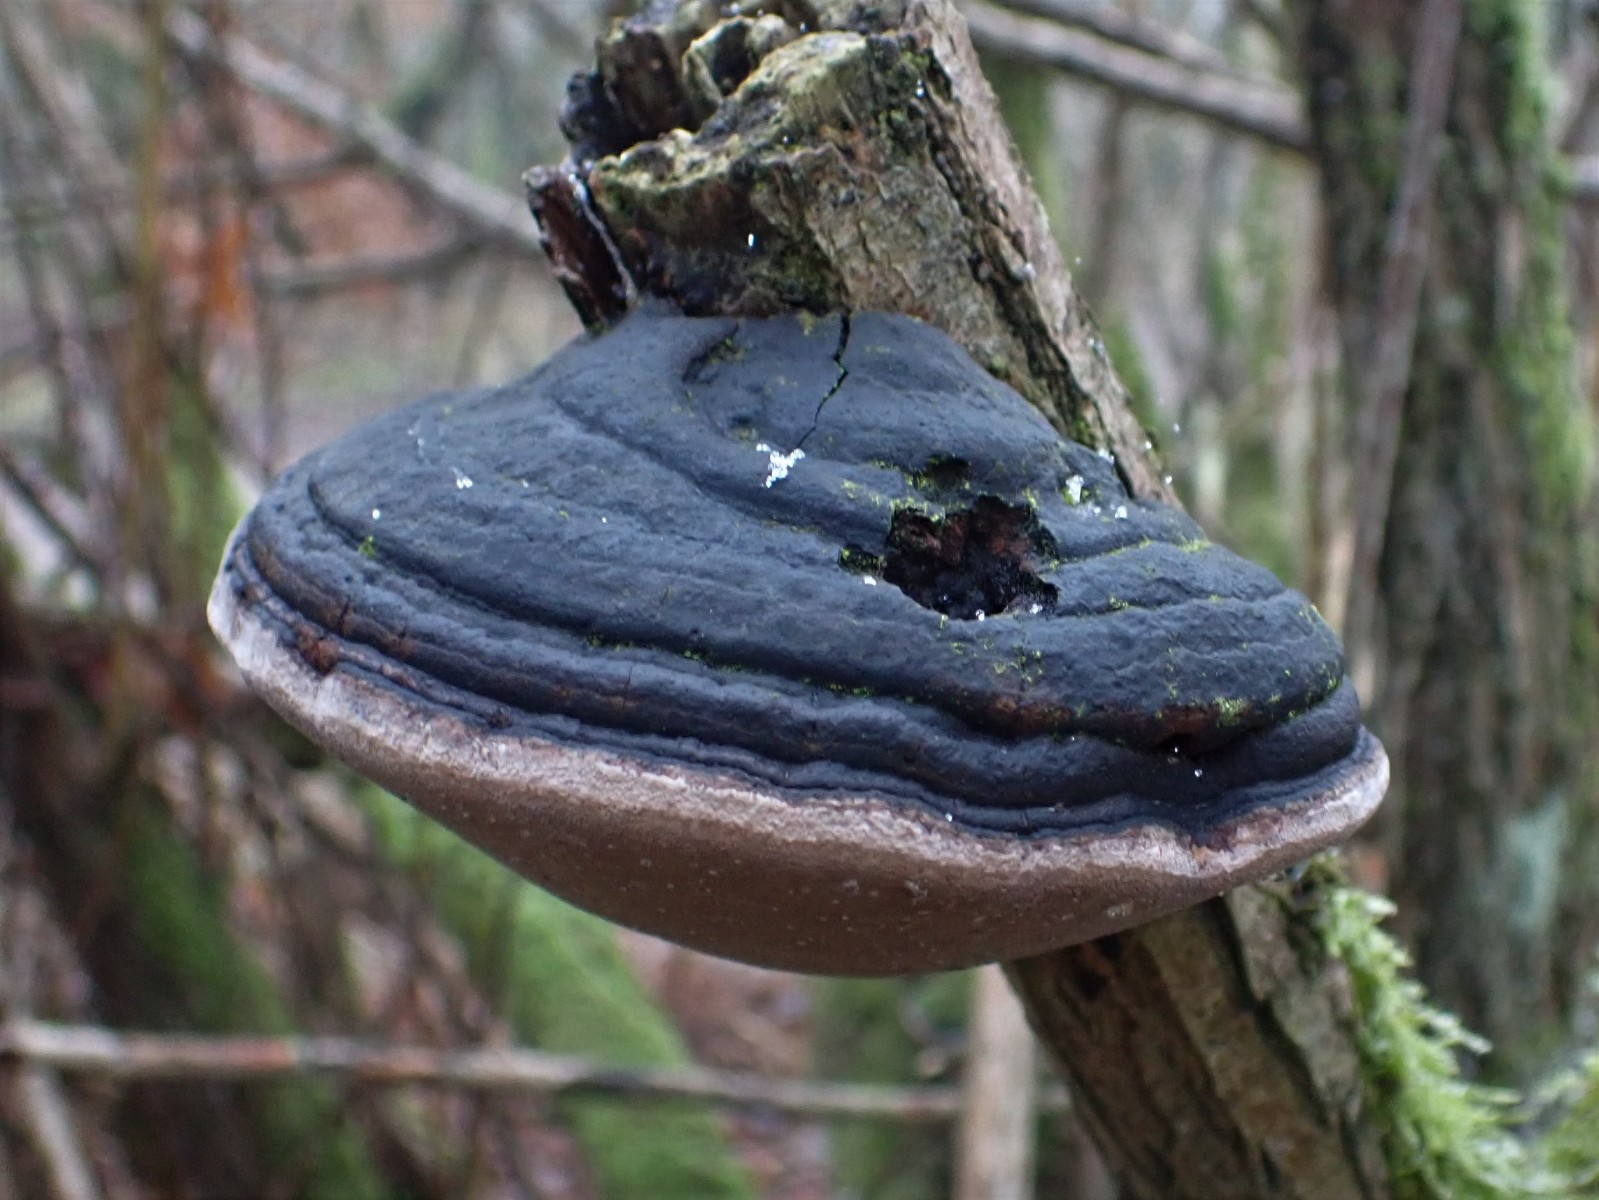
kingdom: Fungi
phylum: Basidiomycota
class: Agaricomycetes
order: Hymenochaetales
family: Hymenochaetaceae
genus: Phellinus
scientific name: Phellinus igniarius
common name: almindelig ildporesvamp
